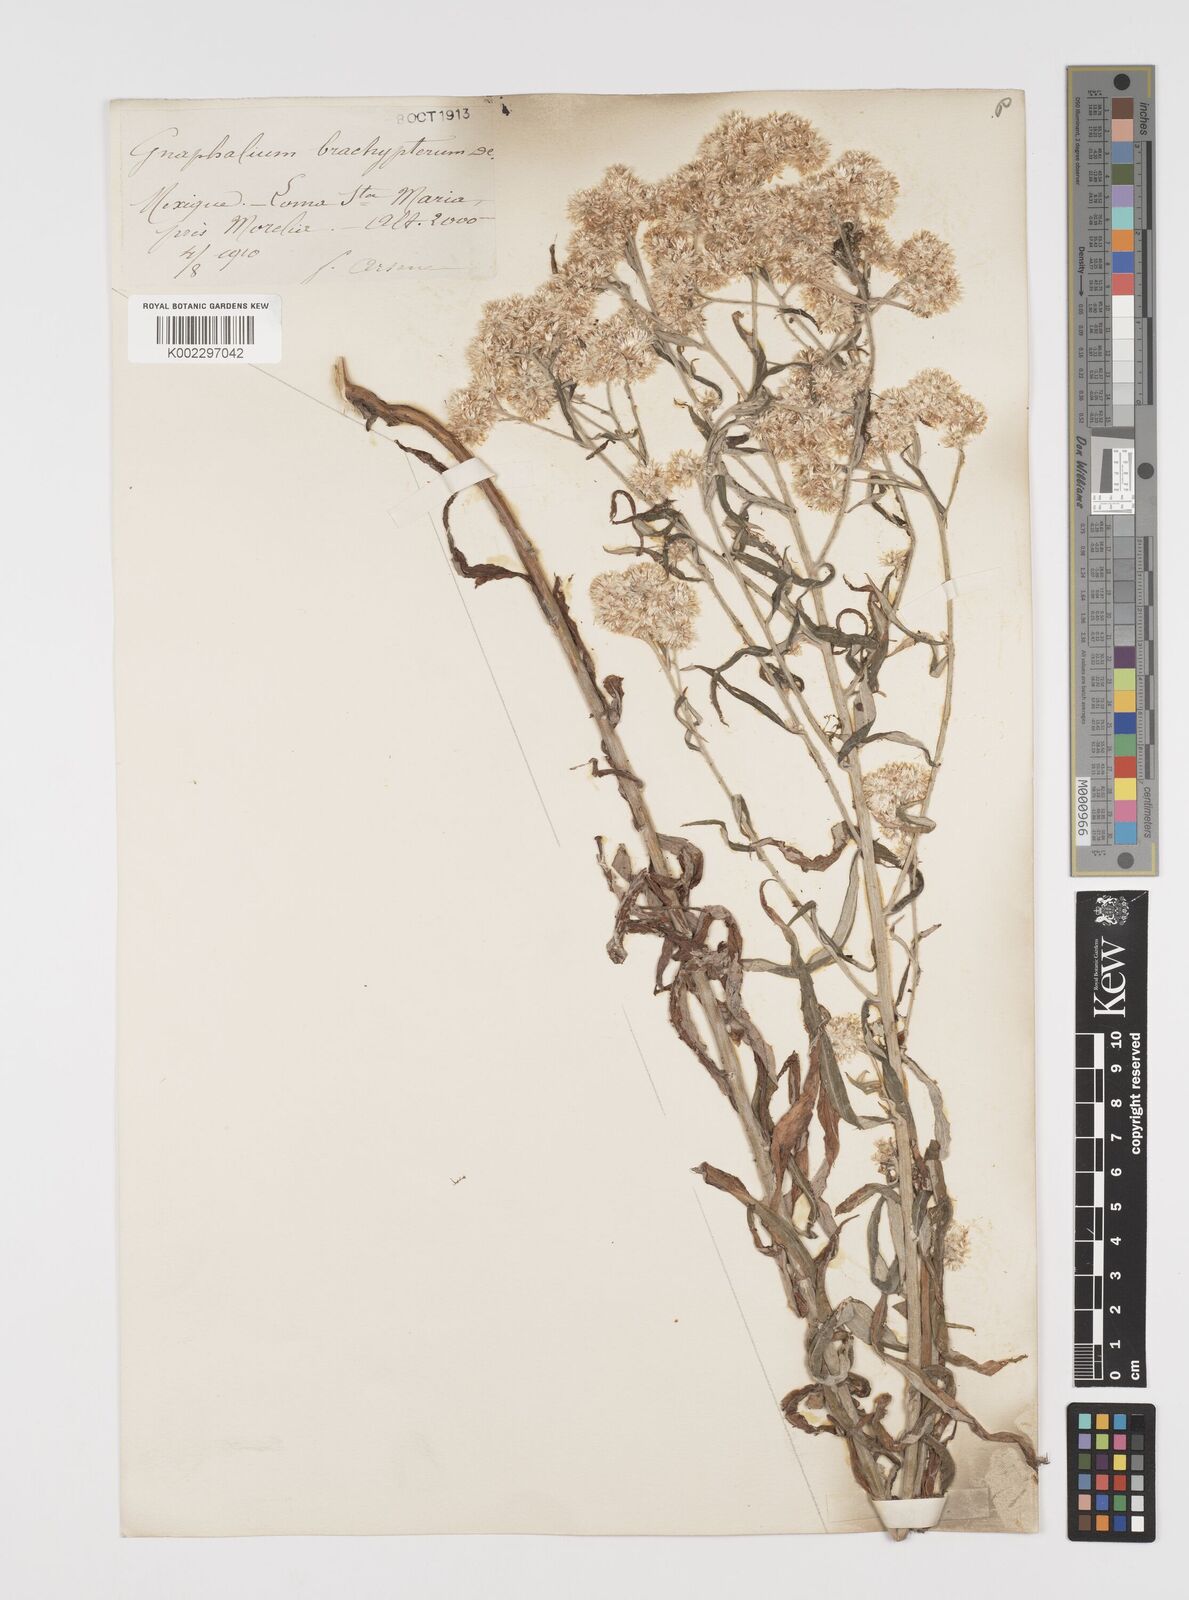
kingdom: Plantae
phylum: Tracheophyta
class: Magnoliopsida
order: Asterales
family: Asteraceae
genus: Pseudognaphalium
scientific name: Pseudognaphalium brachypterum
